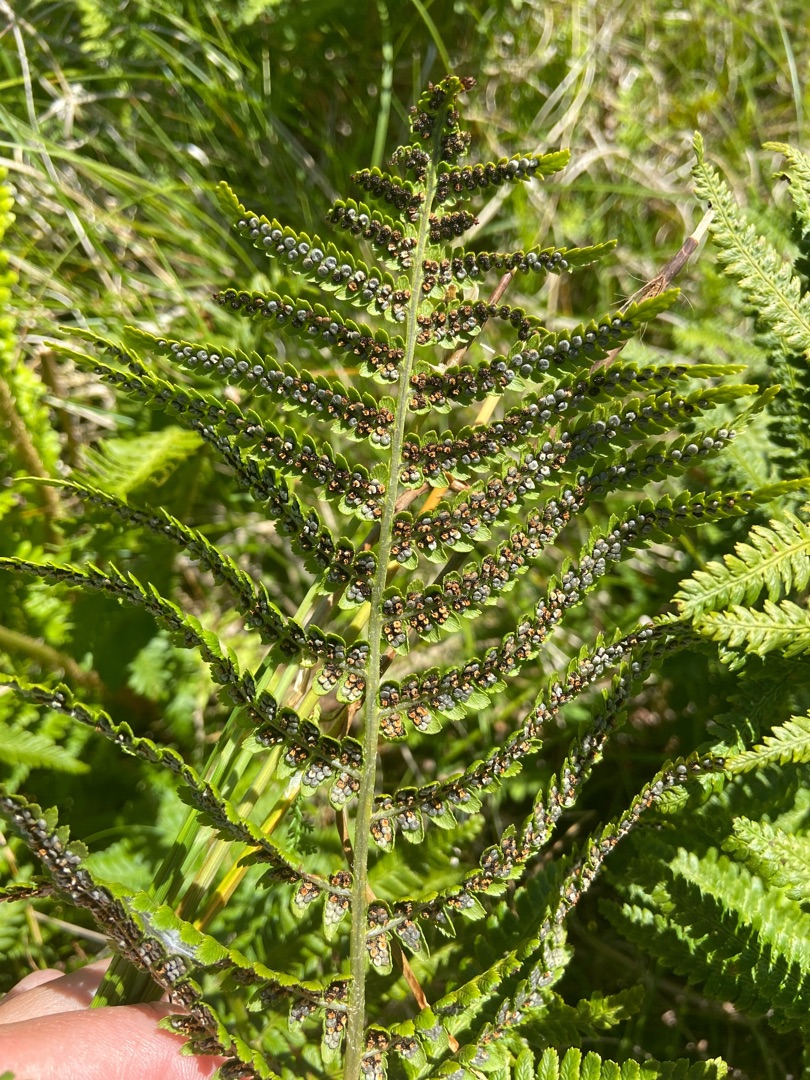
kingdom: Plantae
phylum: Tracheophyta
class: Polypodiopsida
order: Polypodiales
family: Dryopteridaceae
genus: Dryopteris
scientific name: Dryopteris filix-mas
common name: Almindelig mangeløv
